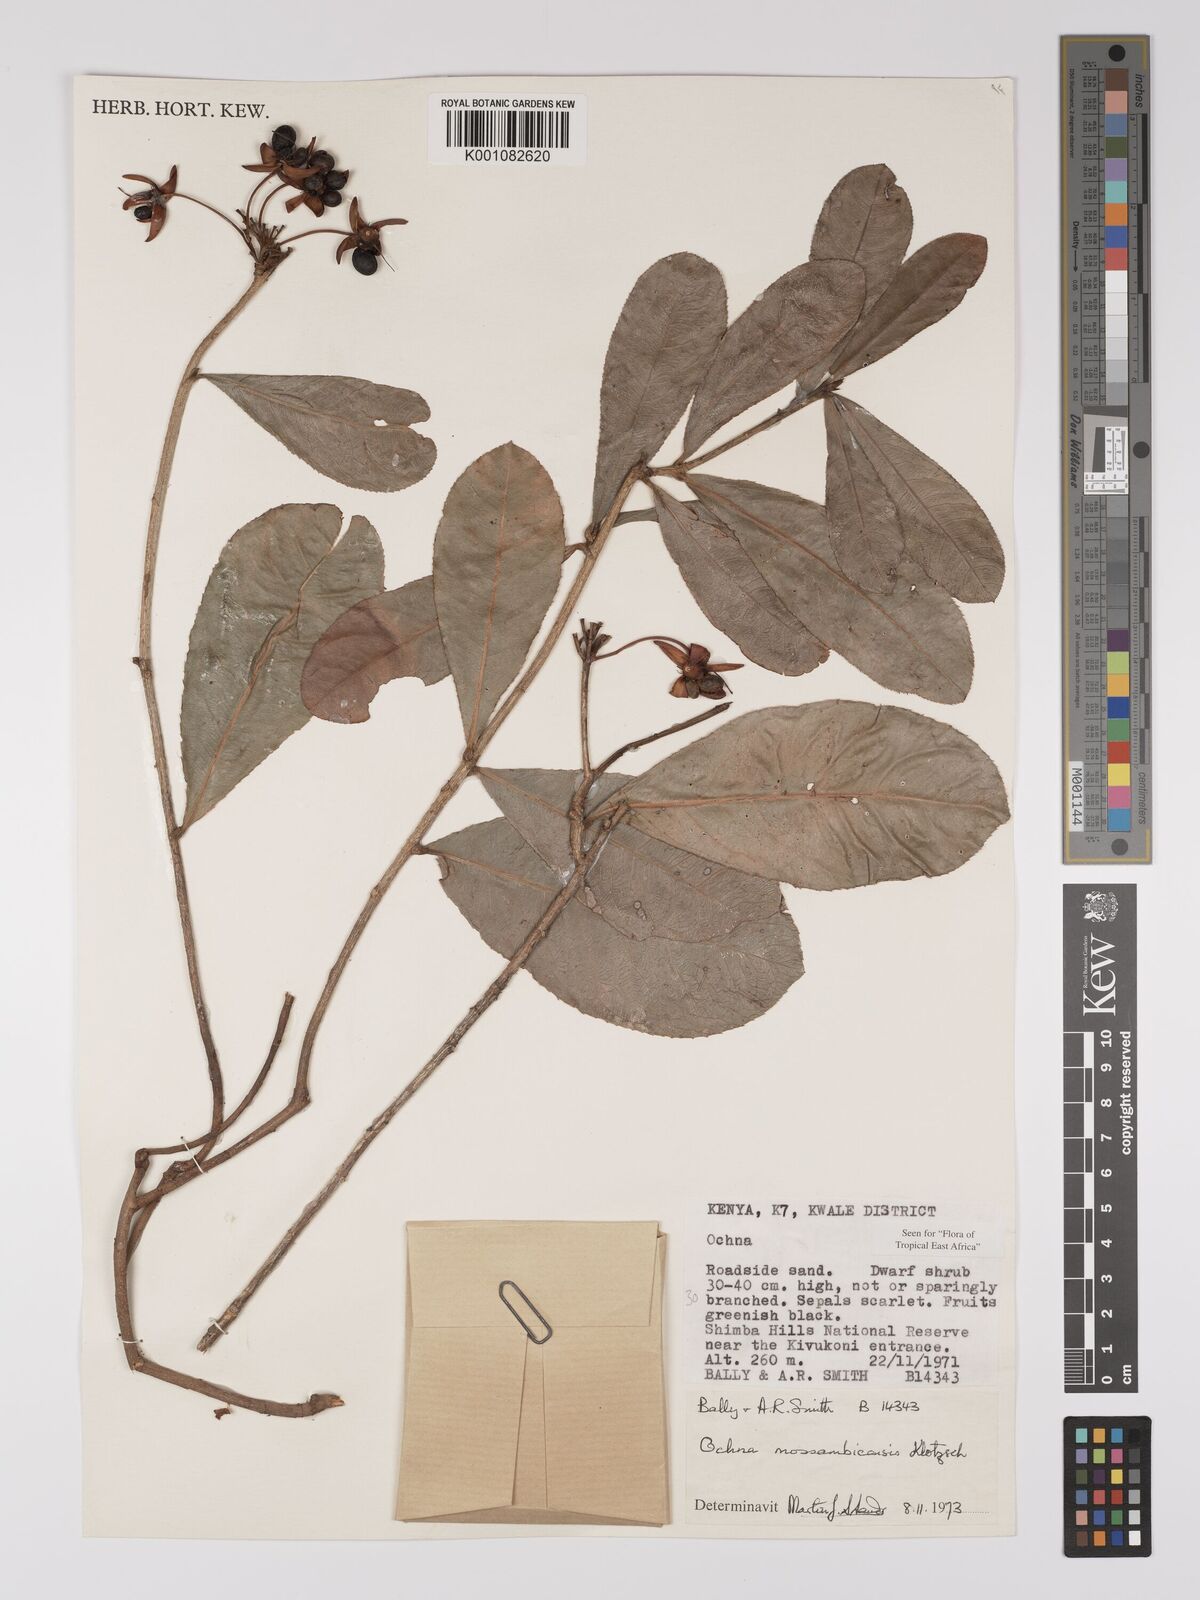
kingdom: Plantae
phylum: Tracheophyta
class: Magnoliopsida
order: Malpighiales
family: Ochnaceae
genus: Ochna
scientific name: Ochna atropurpurea
